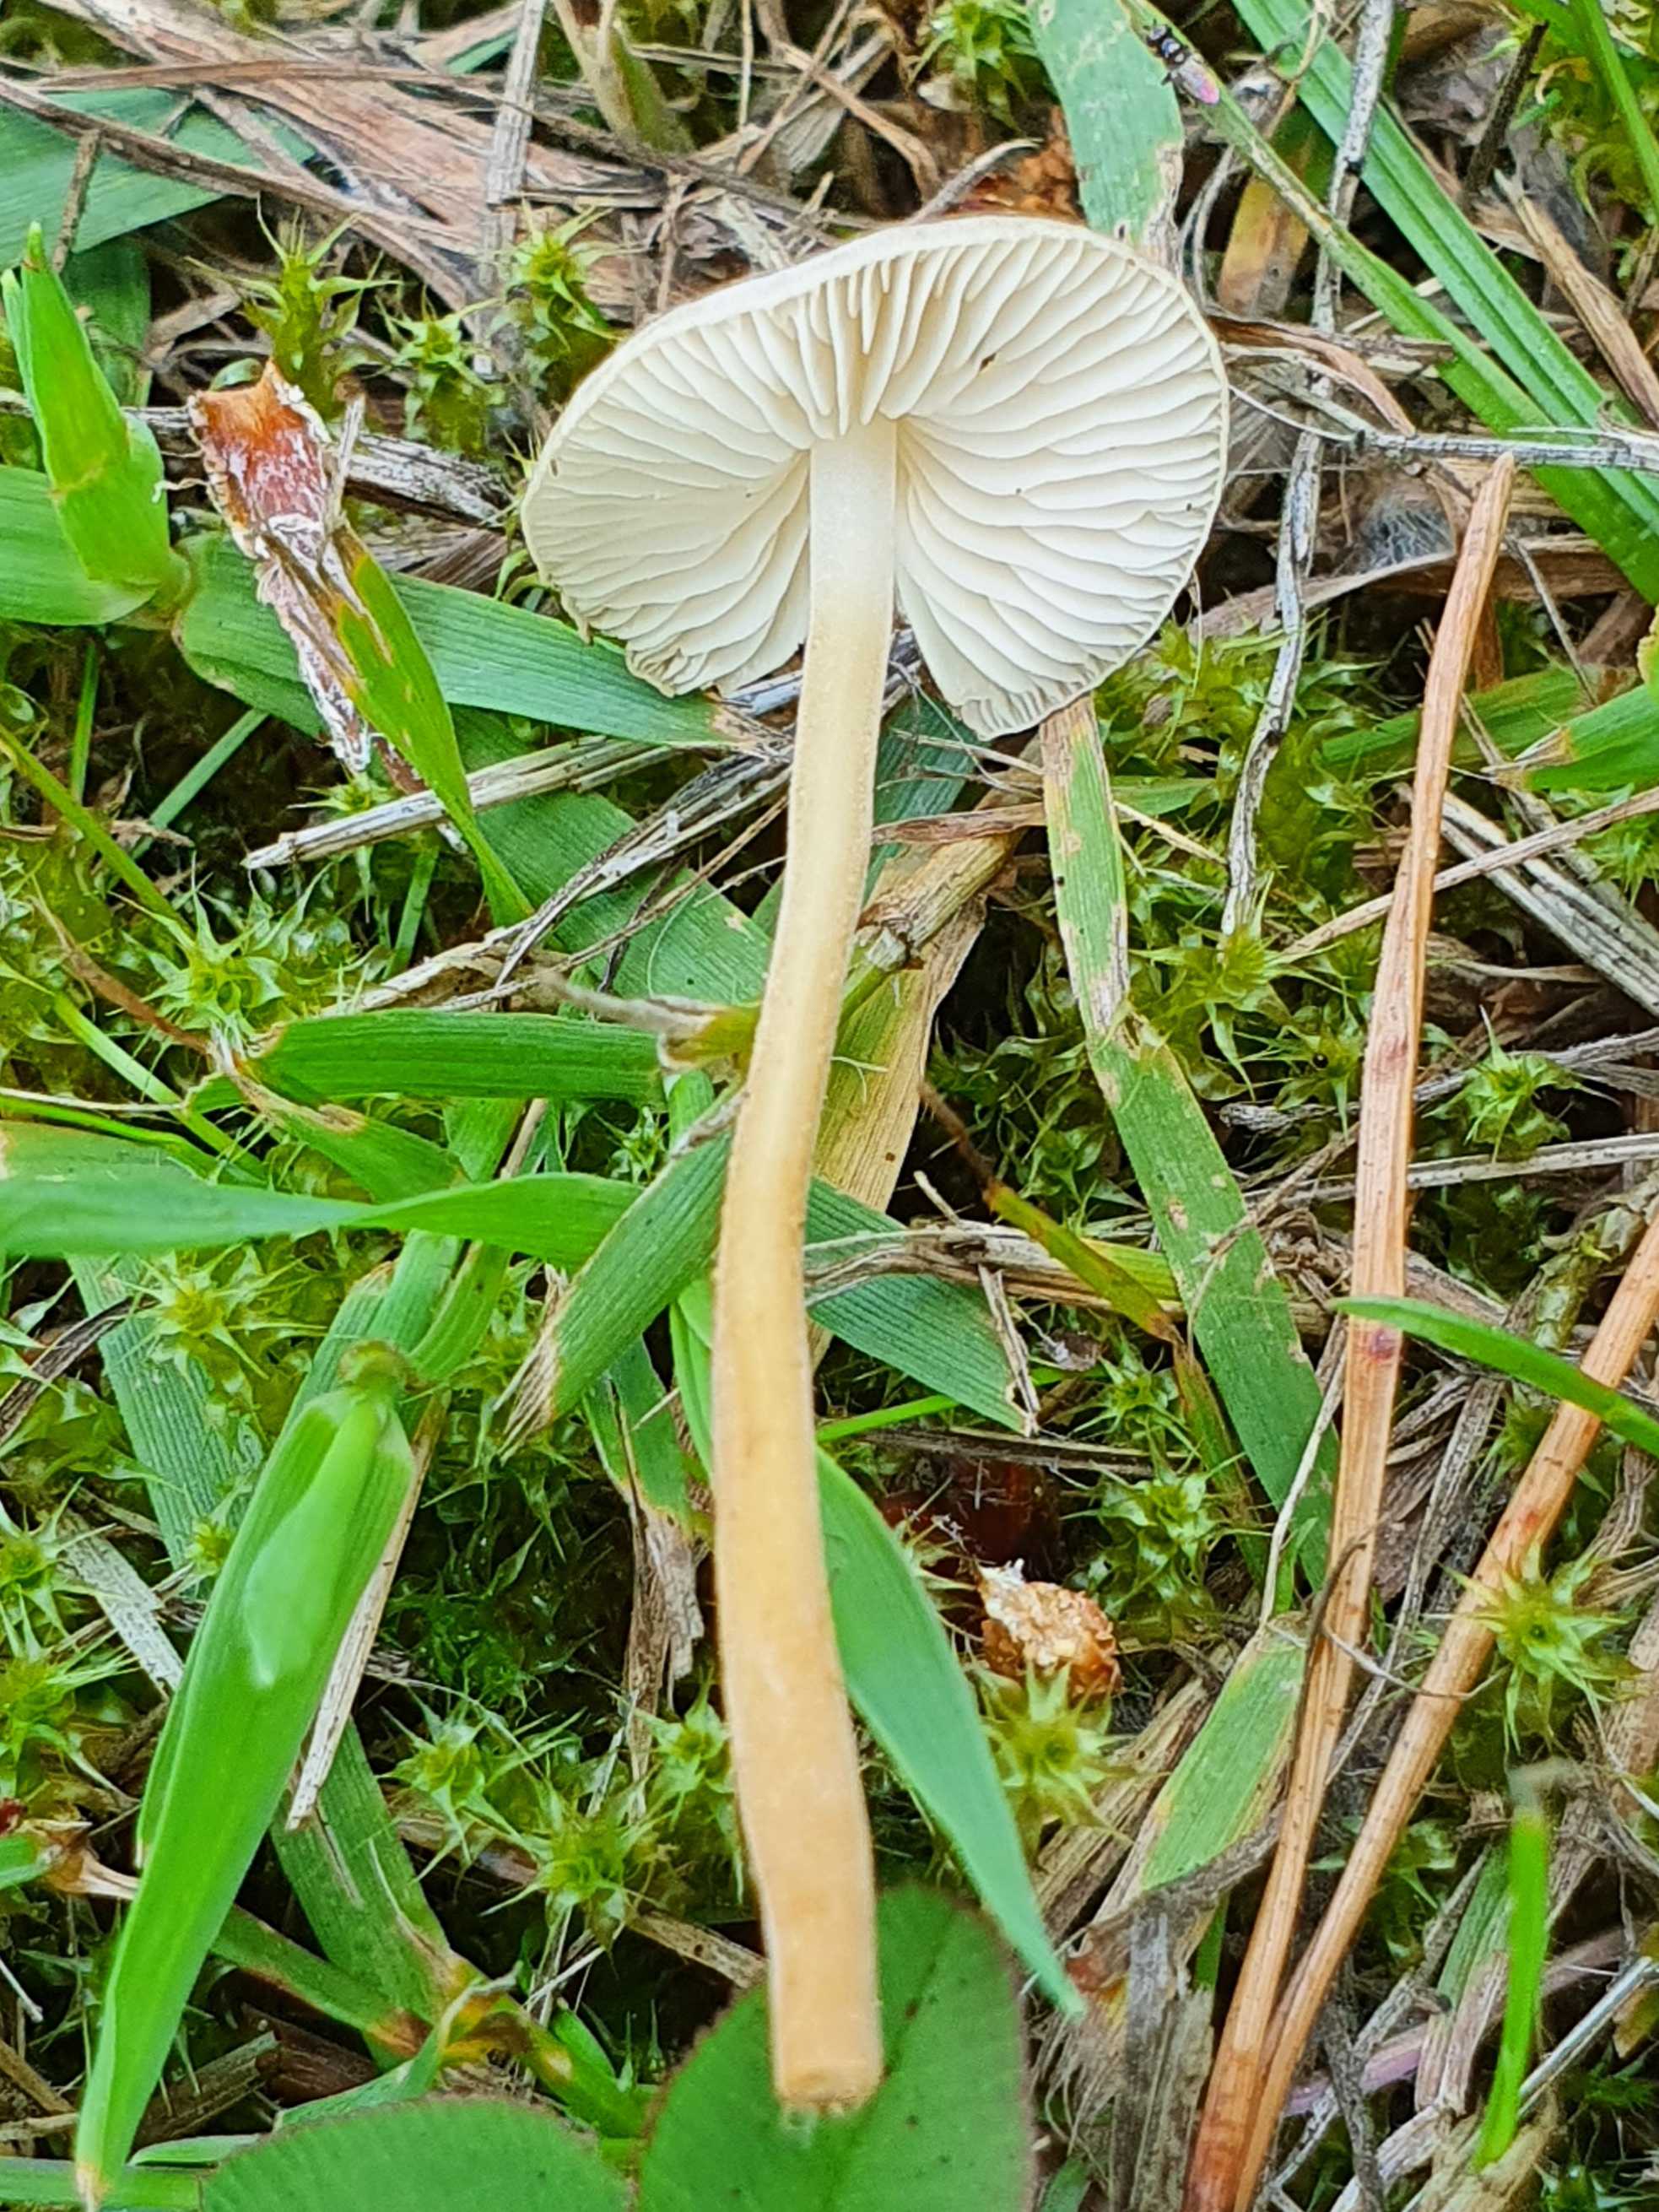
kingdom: Fungi
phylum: Basidiomycota
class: Agaricomycetes
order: Agaricales
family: Physalacriaceae
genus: Strobilurus
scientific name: Strobilurus tenacellus
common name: sommer-koglehat
